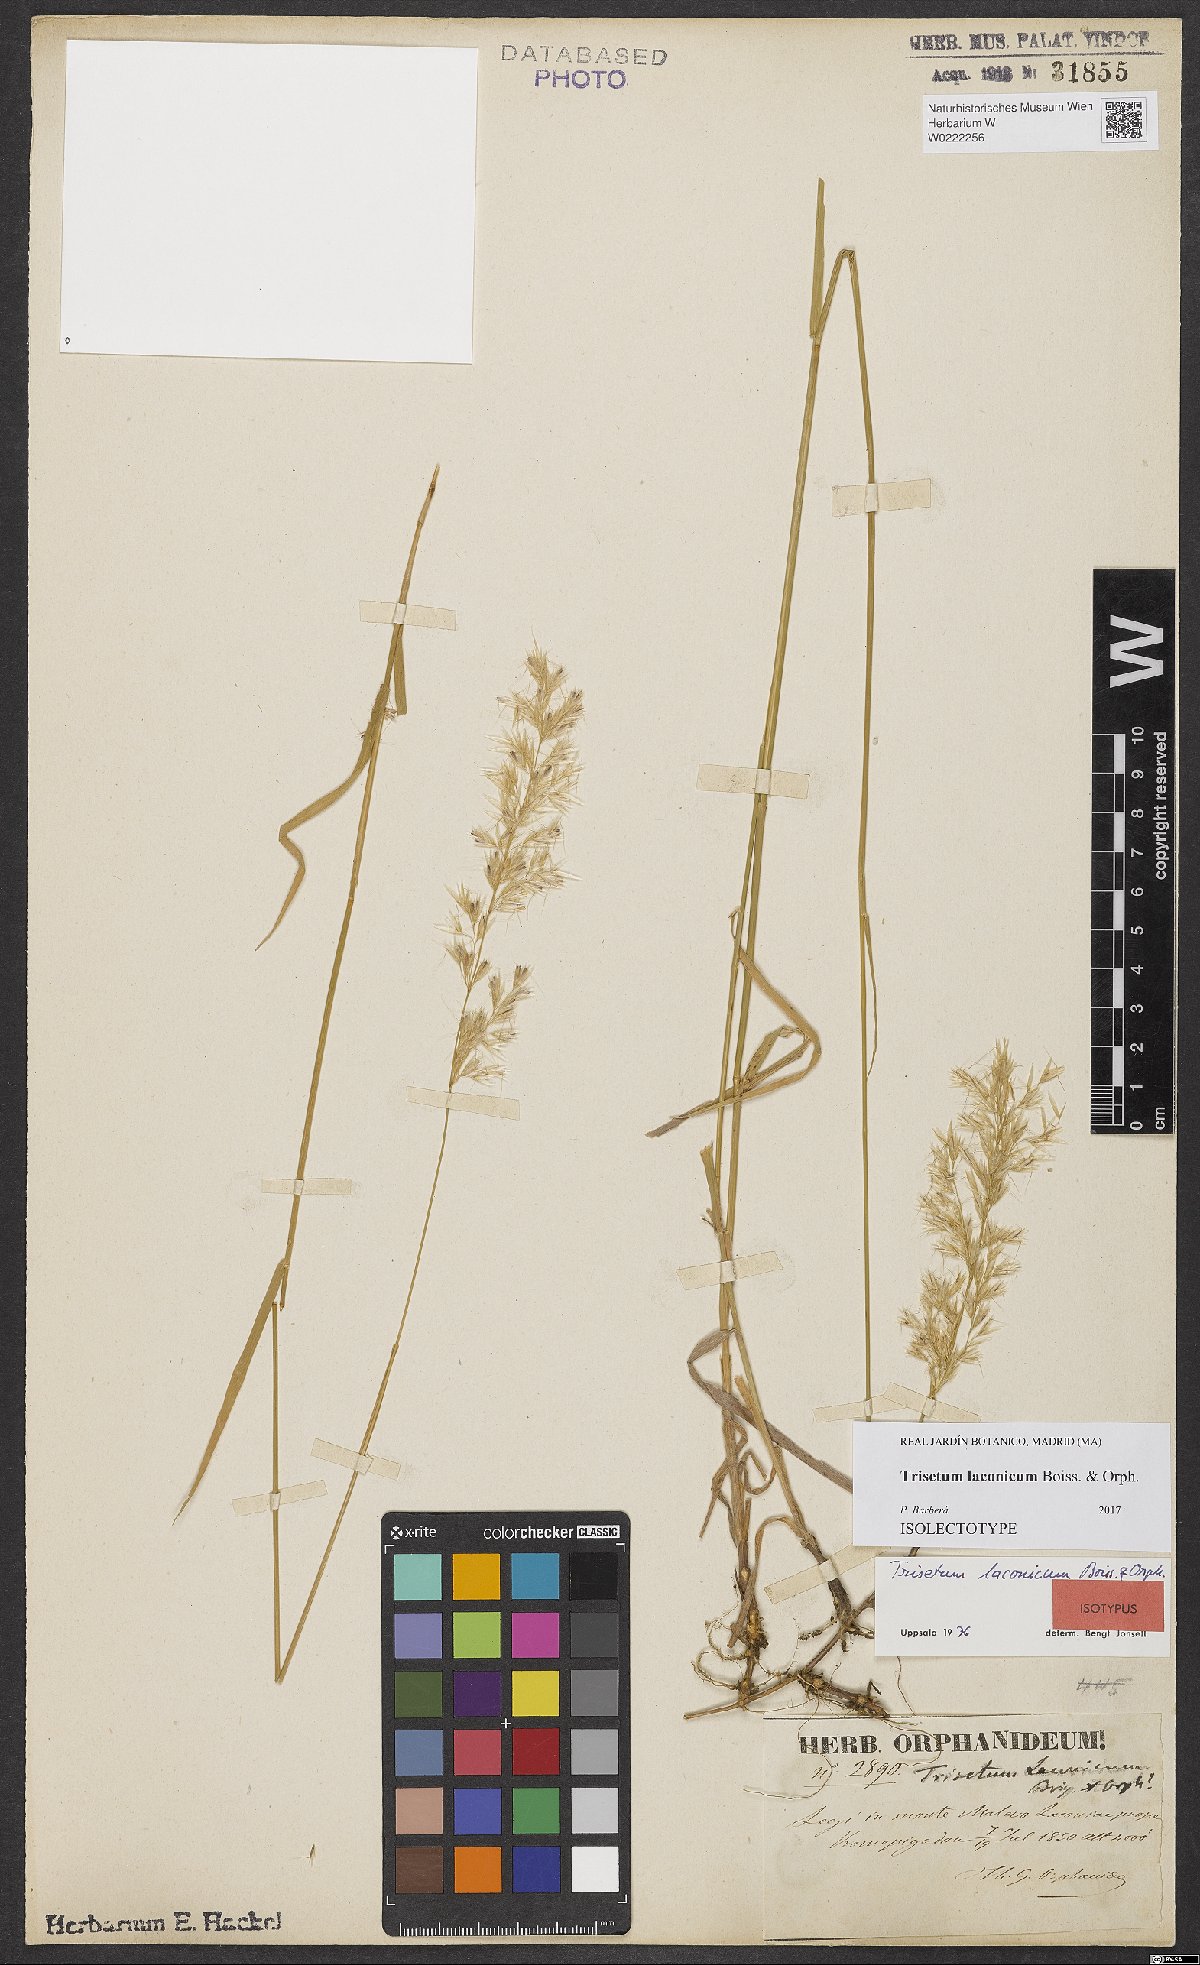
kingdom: Plantae
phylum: Tracheophyta
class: Liliopsida
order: Poales
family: Poaceae
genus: Trisetum
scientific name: Trisetum laconicum
